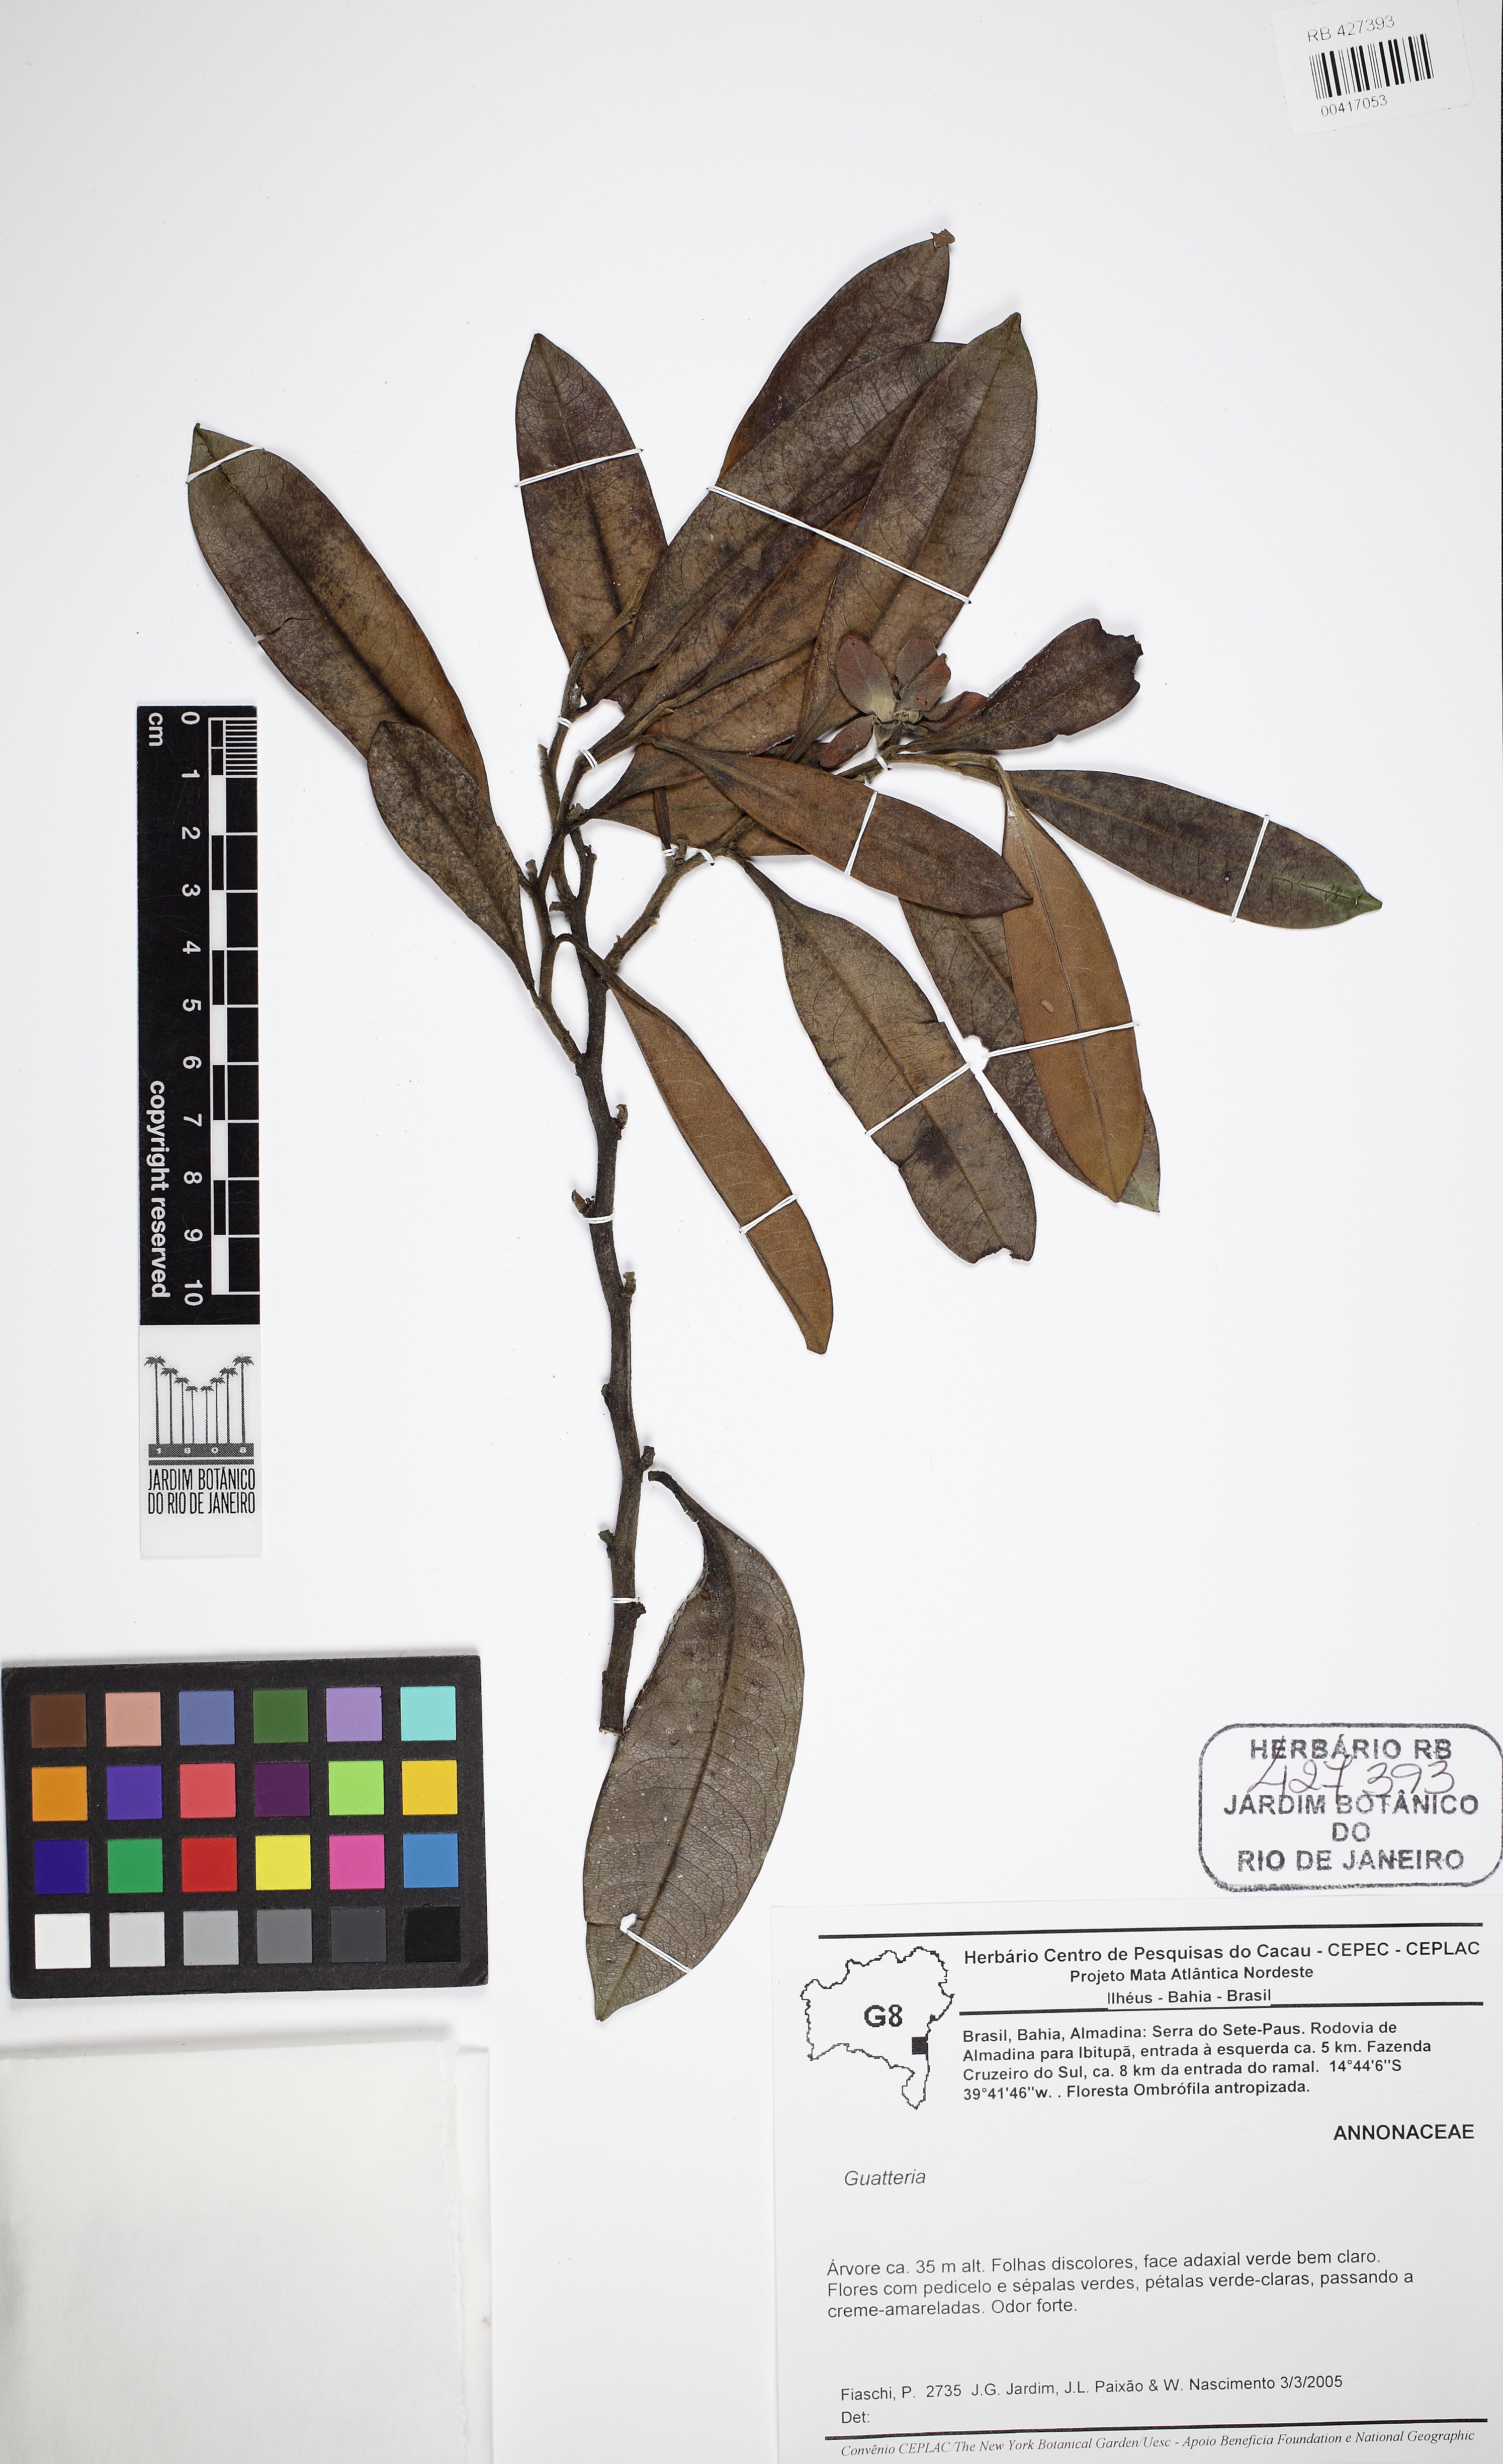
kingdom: Plantae
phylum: Tracheophyta
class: Magnoliopsida
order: Magnoliales
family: Annonaceae
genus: Guatteria
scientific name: Guatteria attenuata
